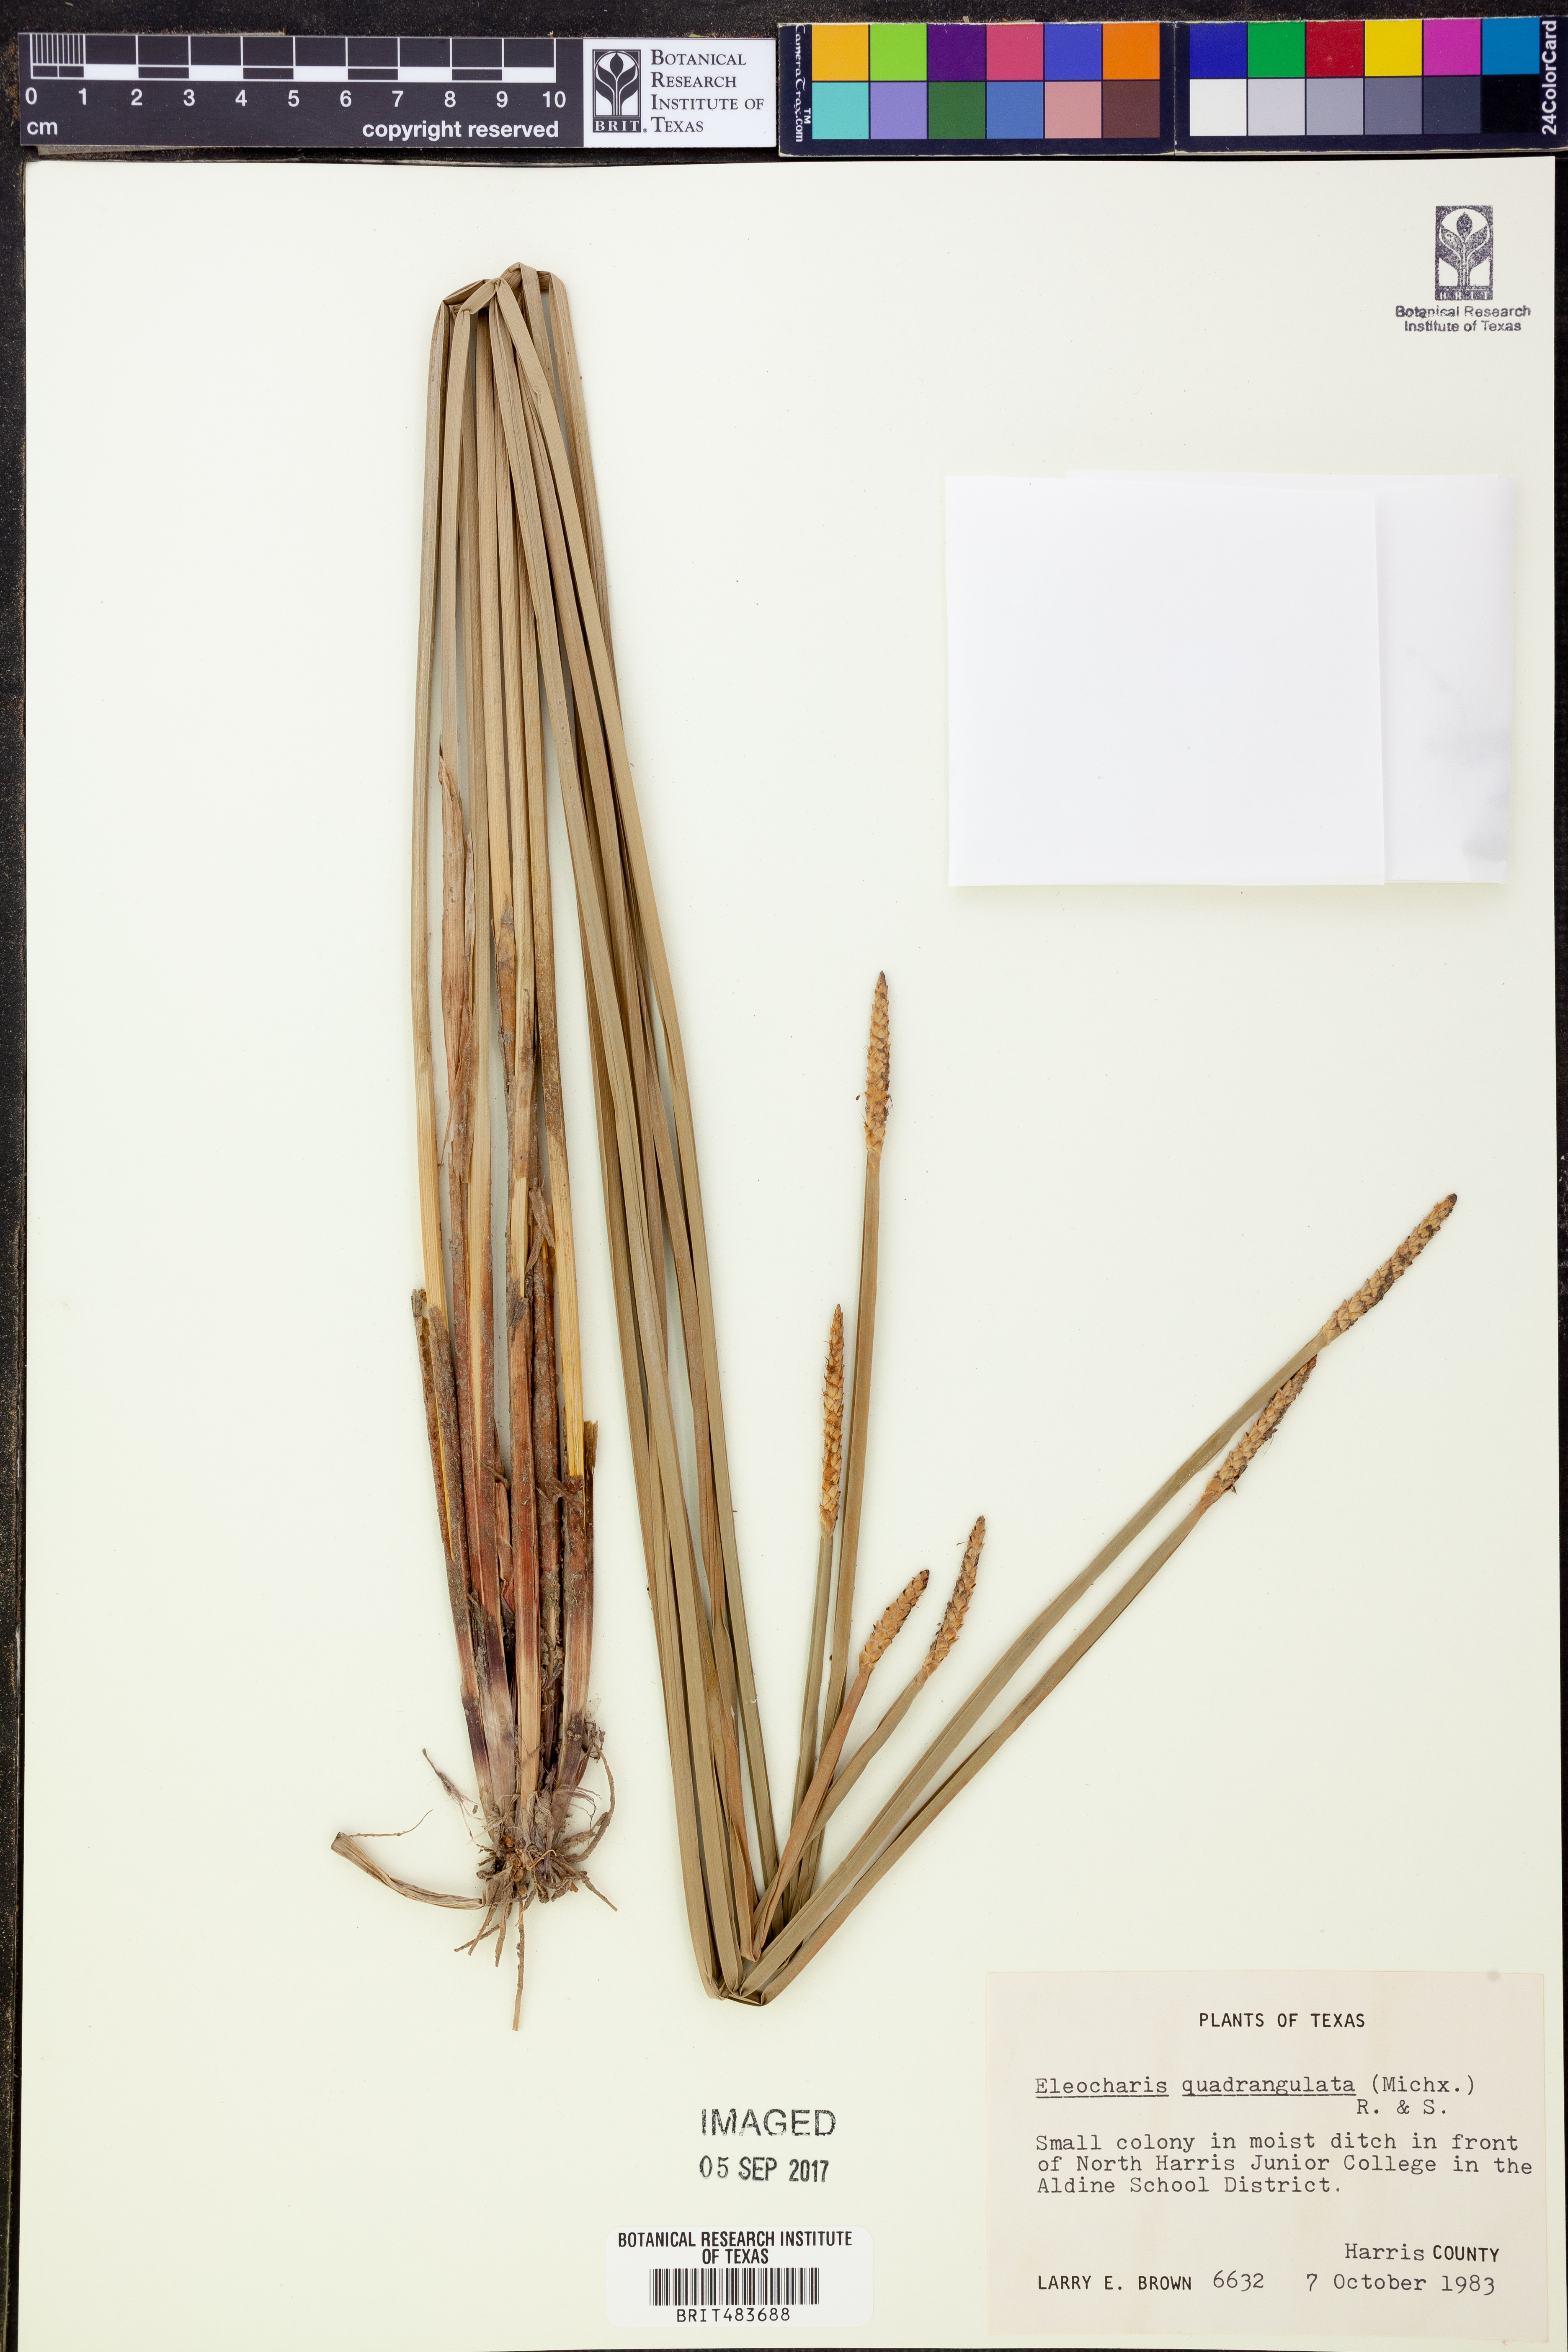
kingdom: Plantae
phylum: Tracheophyta
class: Liliopsida
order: Poales
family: Cyperaceae
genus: Eleocharis
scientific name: Eleocharis quadrangulata
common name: Square-stem spike-rush
